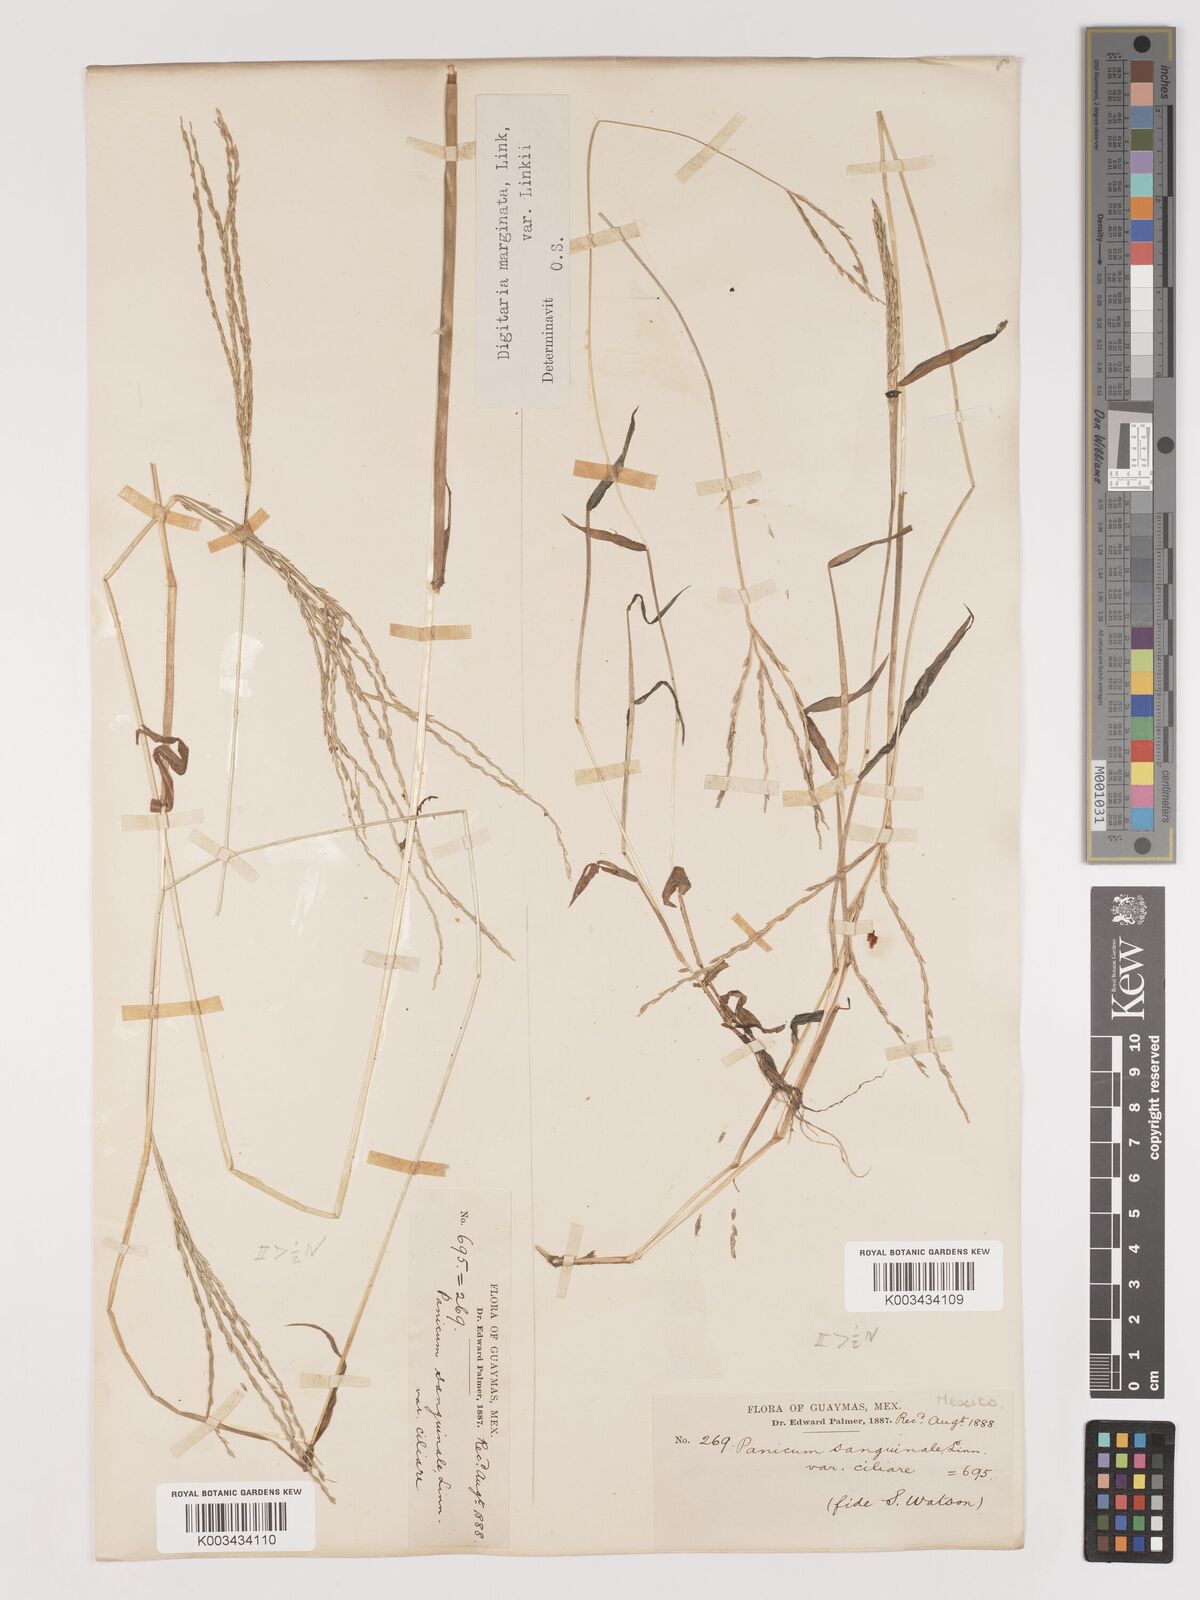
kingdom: Plantae
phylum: Tracheophyta
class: Liliopsida
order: Poales
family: Poaceae
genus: Digitaria
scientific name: Digitaria ciliaris
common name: Tropical finger-grass
